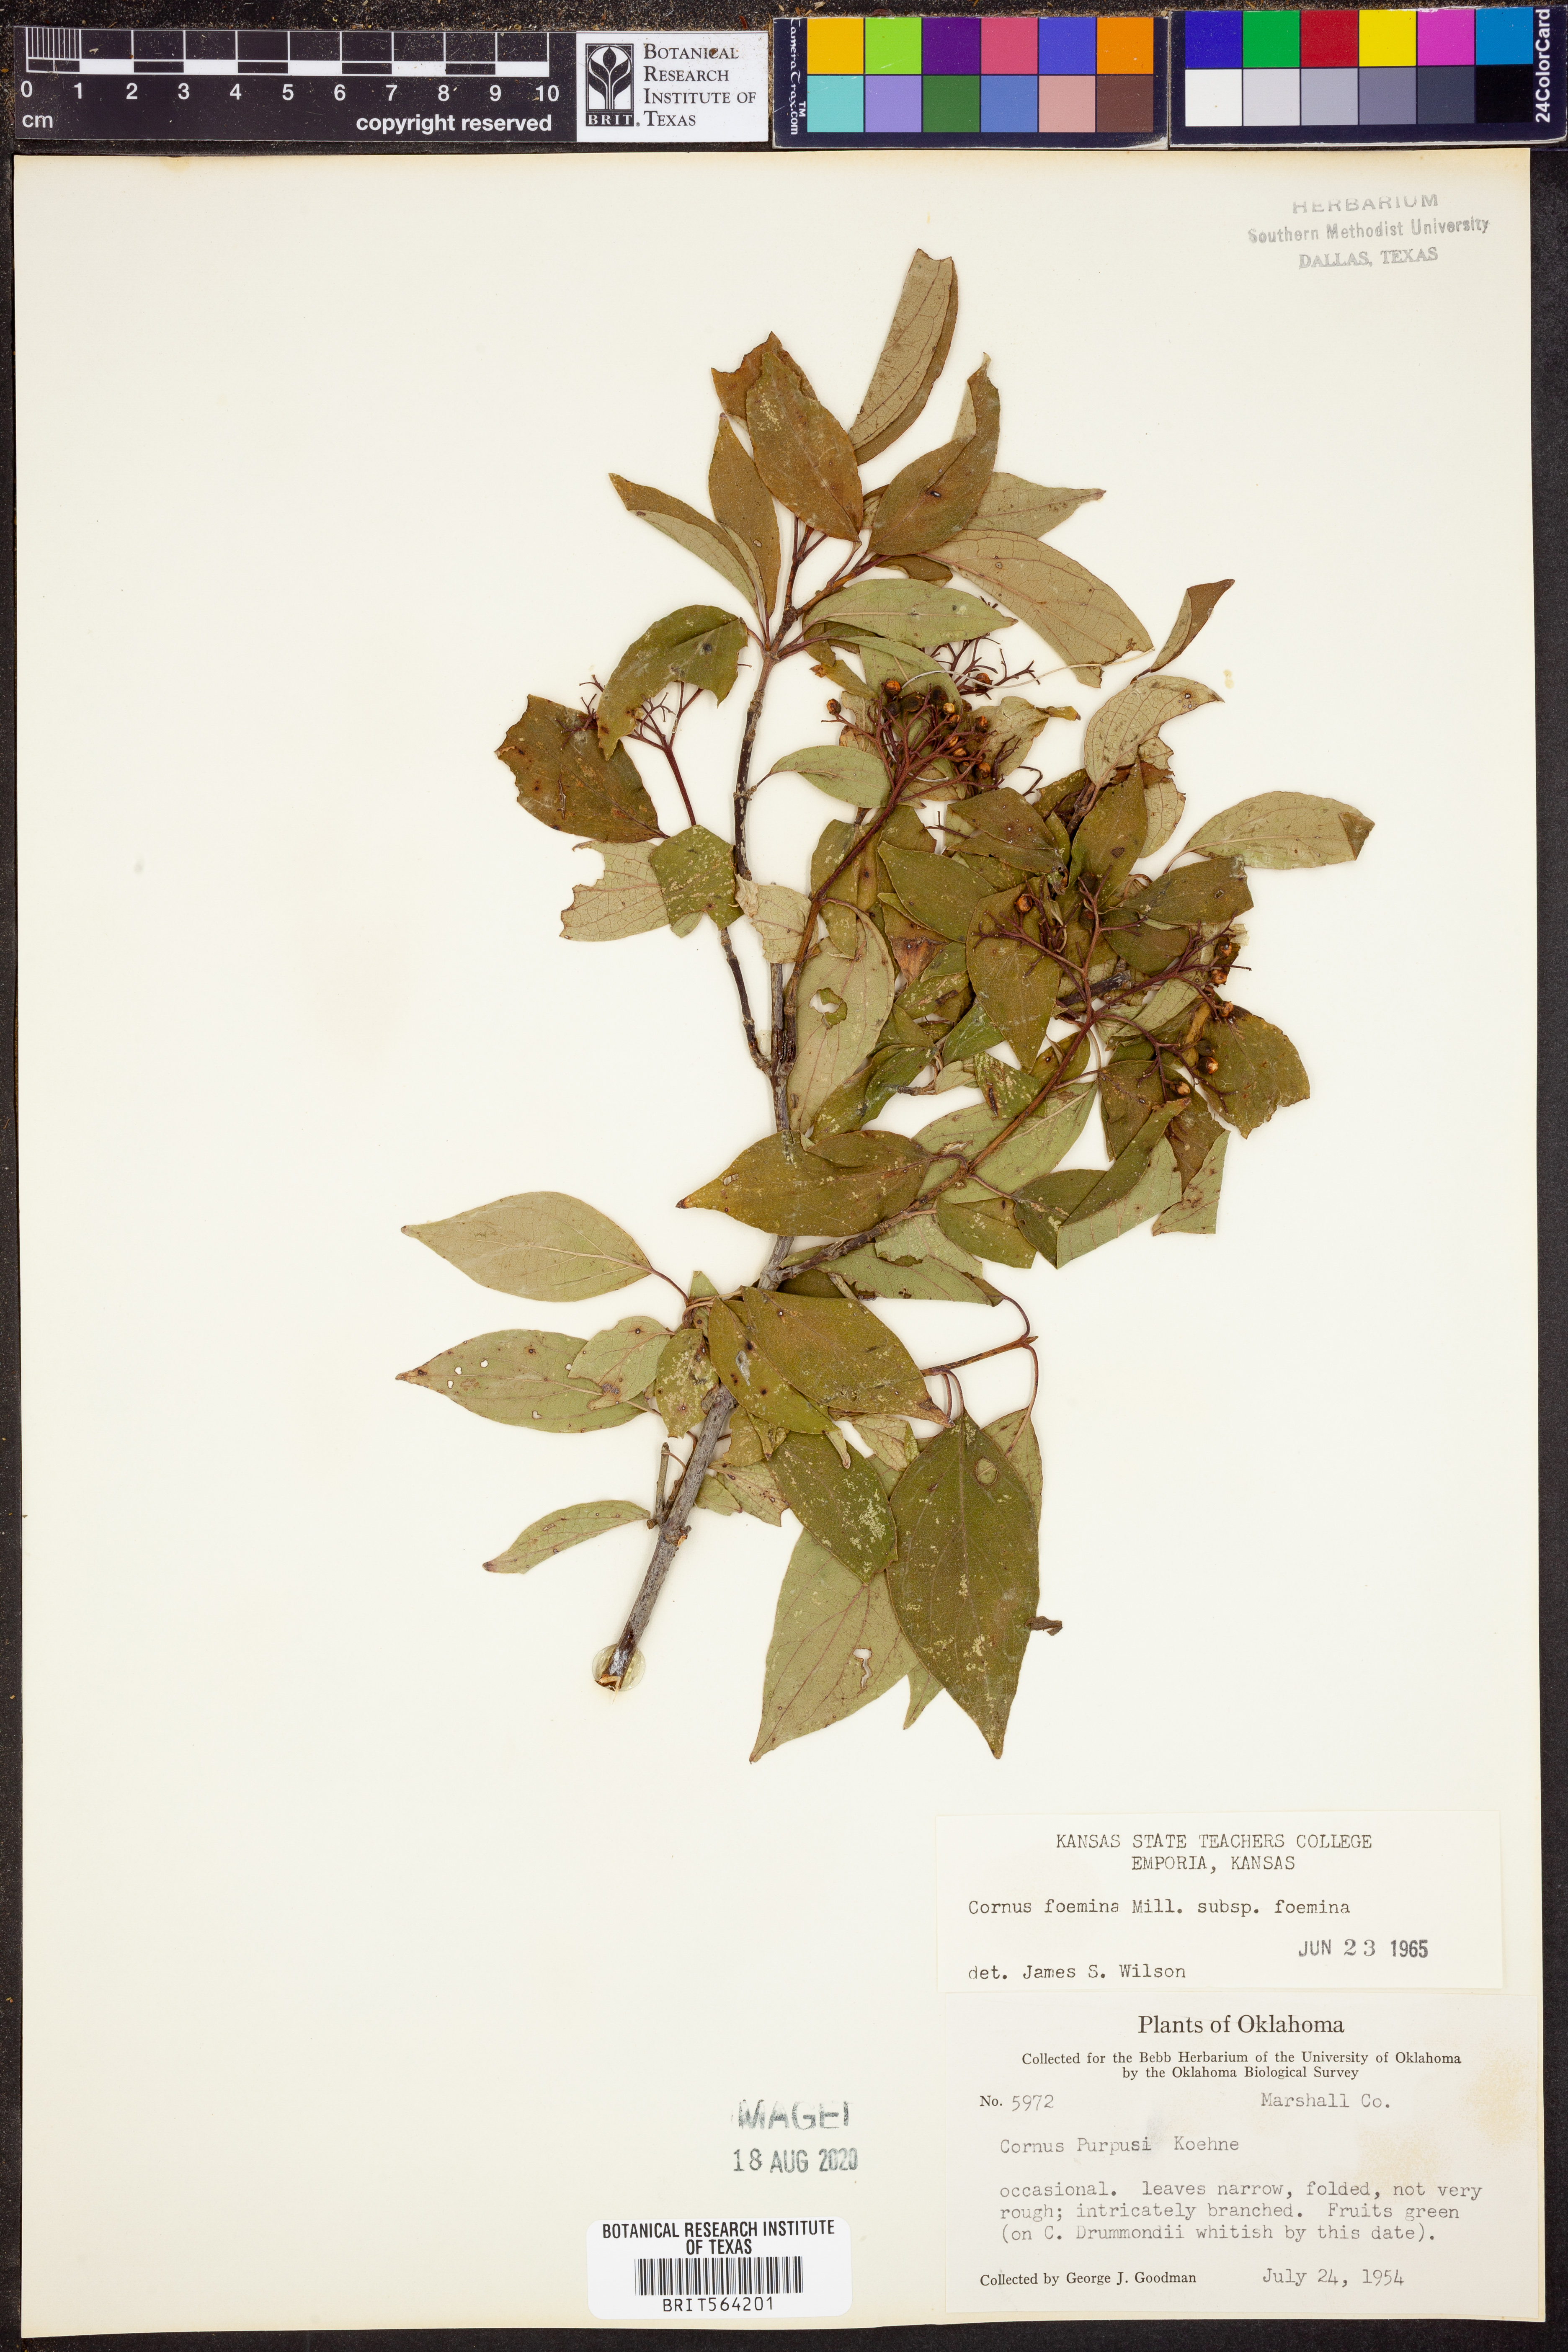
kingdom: Plantae
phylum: Tracheophyta
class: Magnoliopsida
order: Cornales
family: Cornaceae
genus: Cornus
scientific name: Cornus foemina
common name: Swamp dogwood
